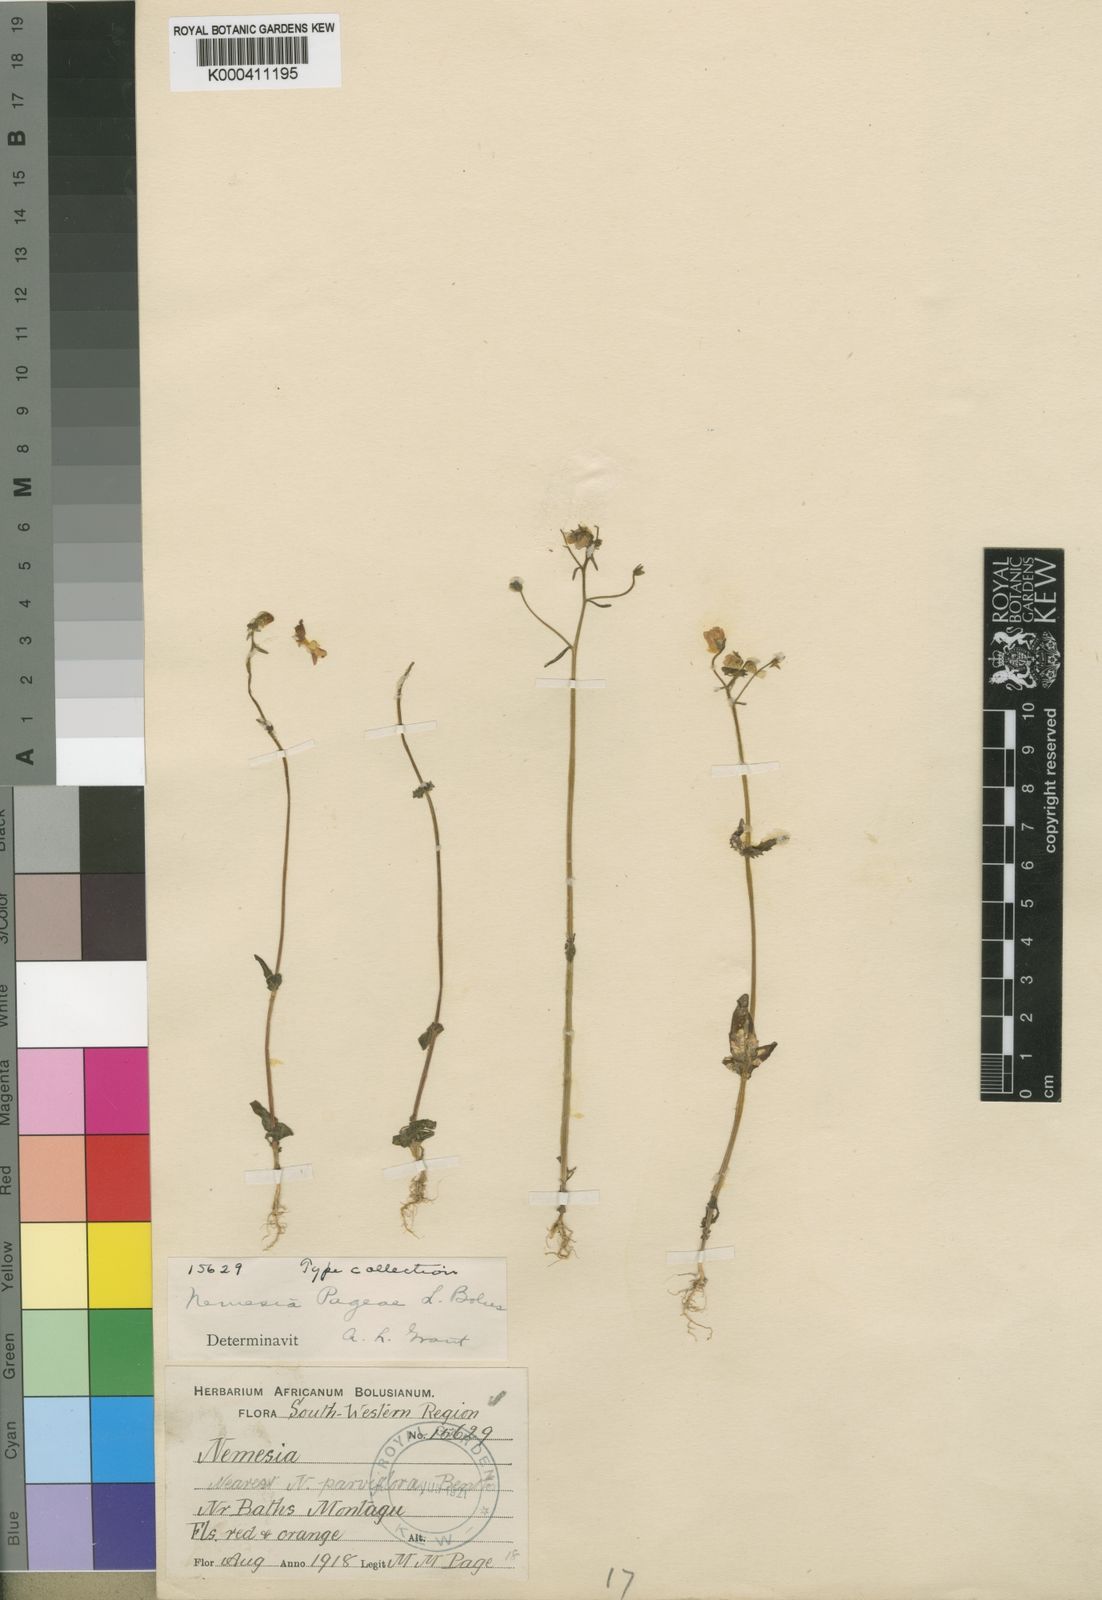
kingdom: Plantae
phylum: Tracheophyta
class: Magnoliopsida
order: Lamiales
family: Scrophulariaceae
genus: Nemesia
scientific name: Nemesia pageae
